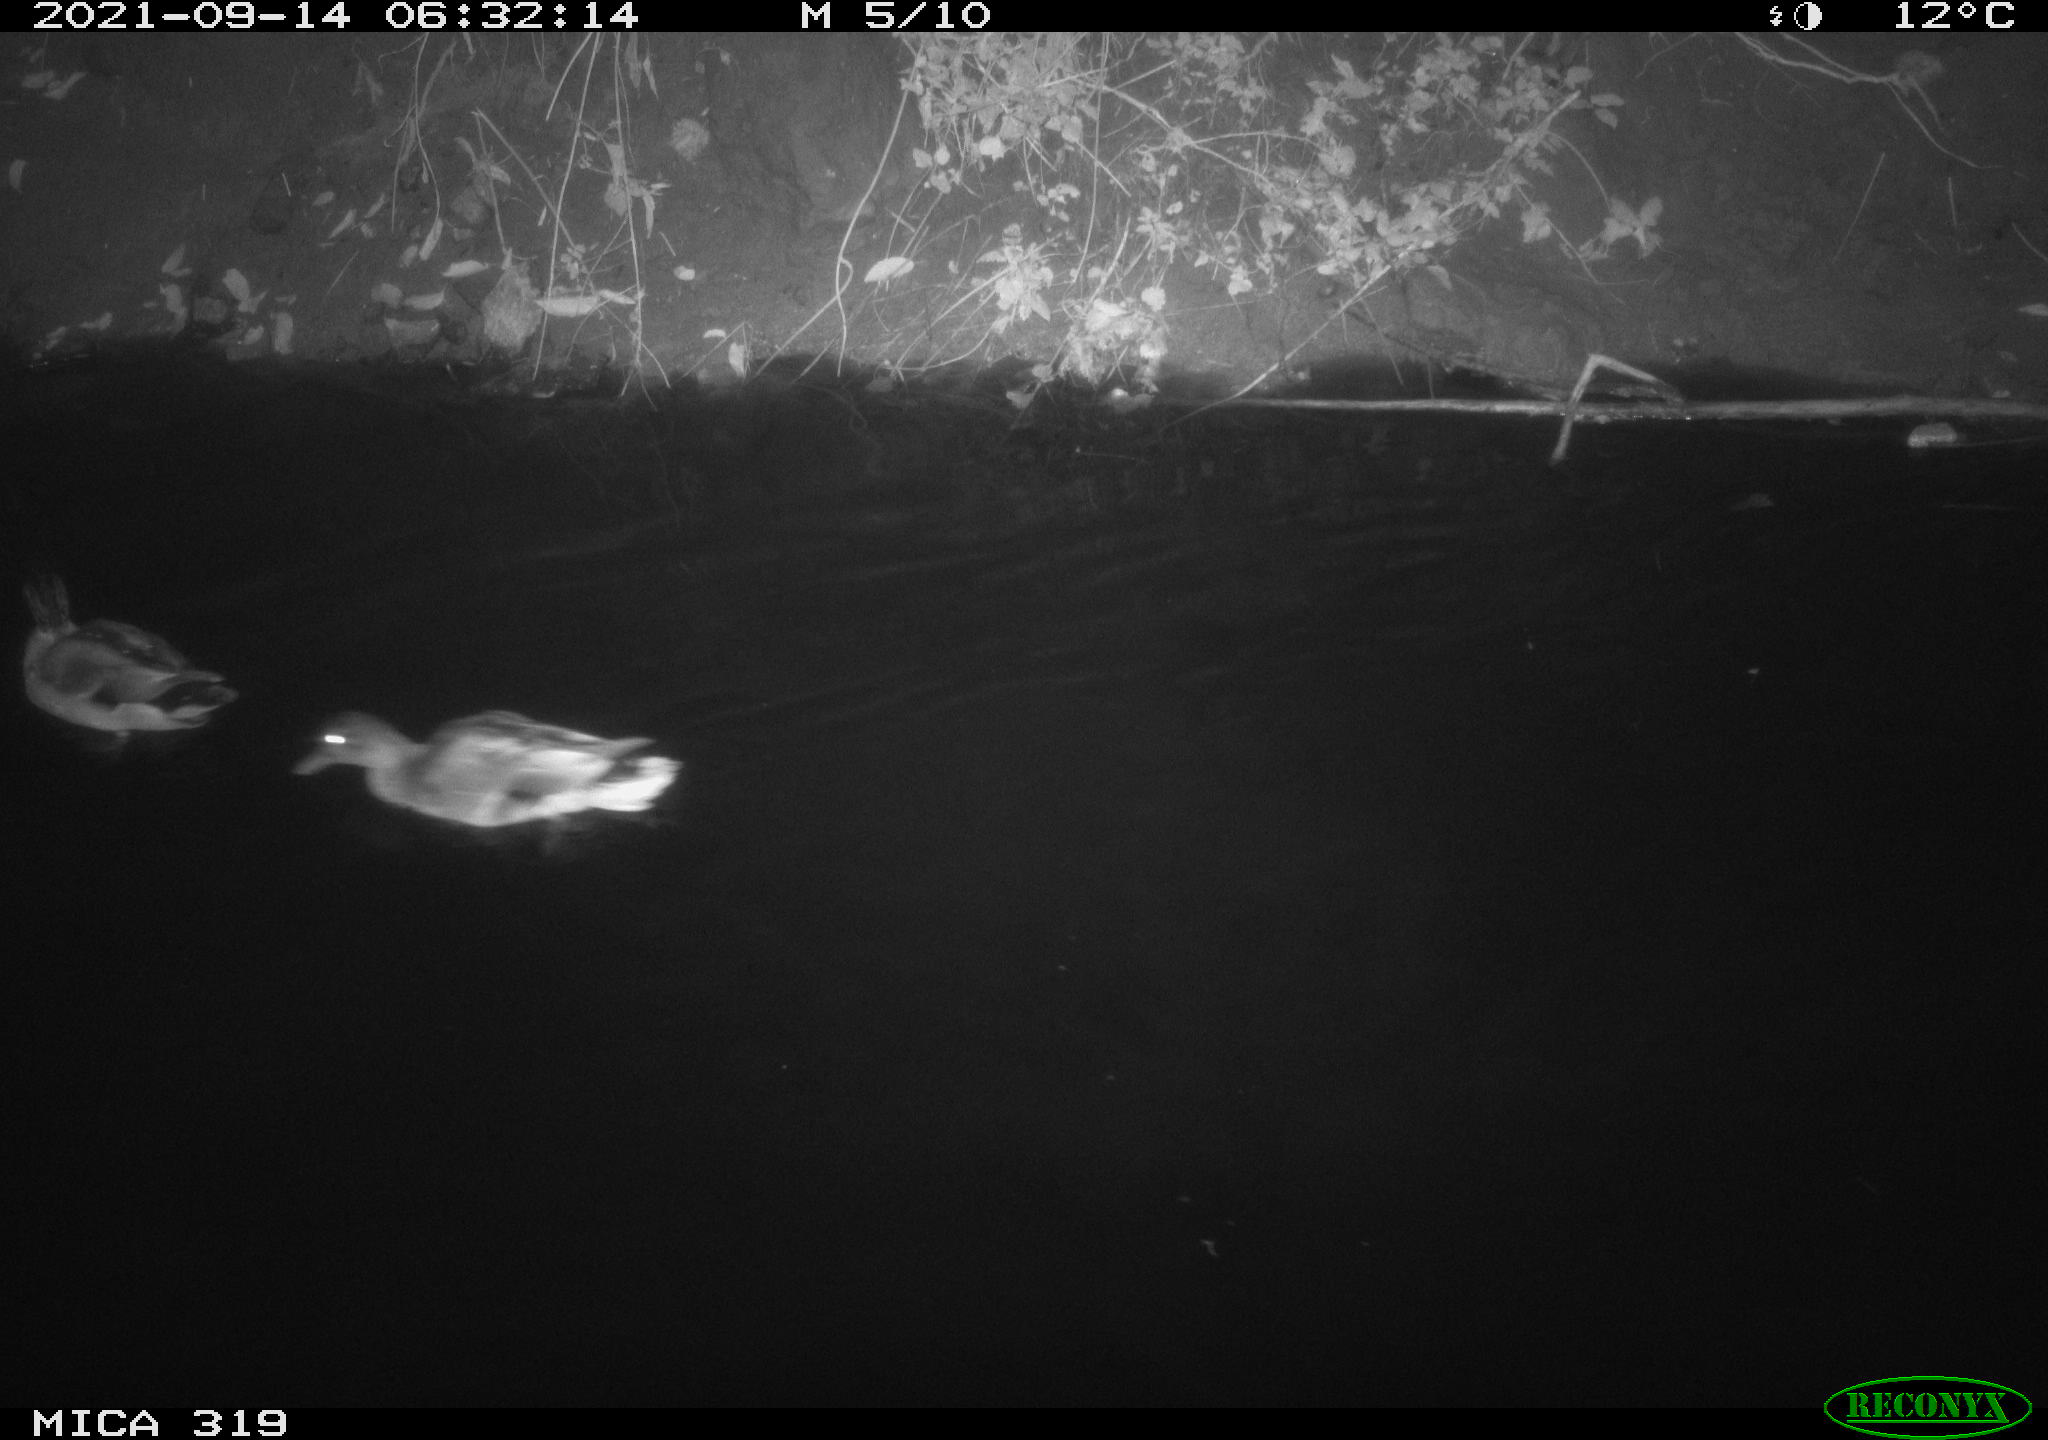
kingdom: Animalia
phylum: Chordata
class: Aves
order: Anseriformes
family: Anatidae
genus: Anas
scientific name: Anas platyrhynchos
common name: Mallard
